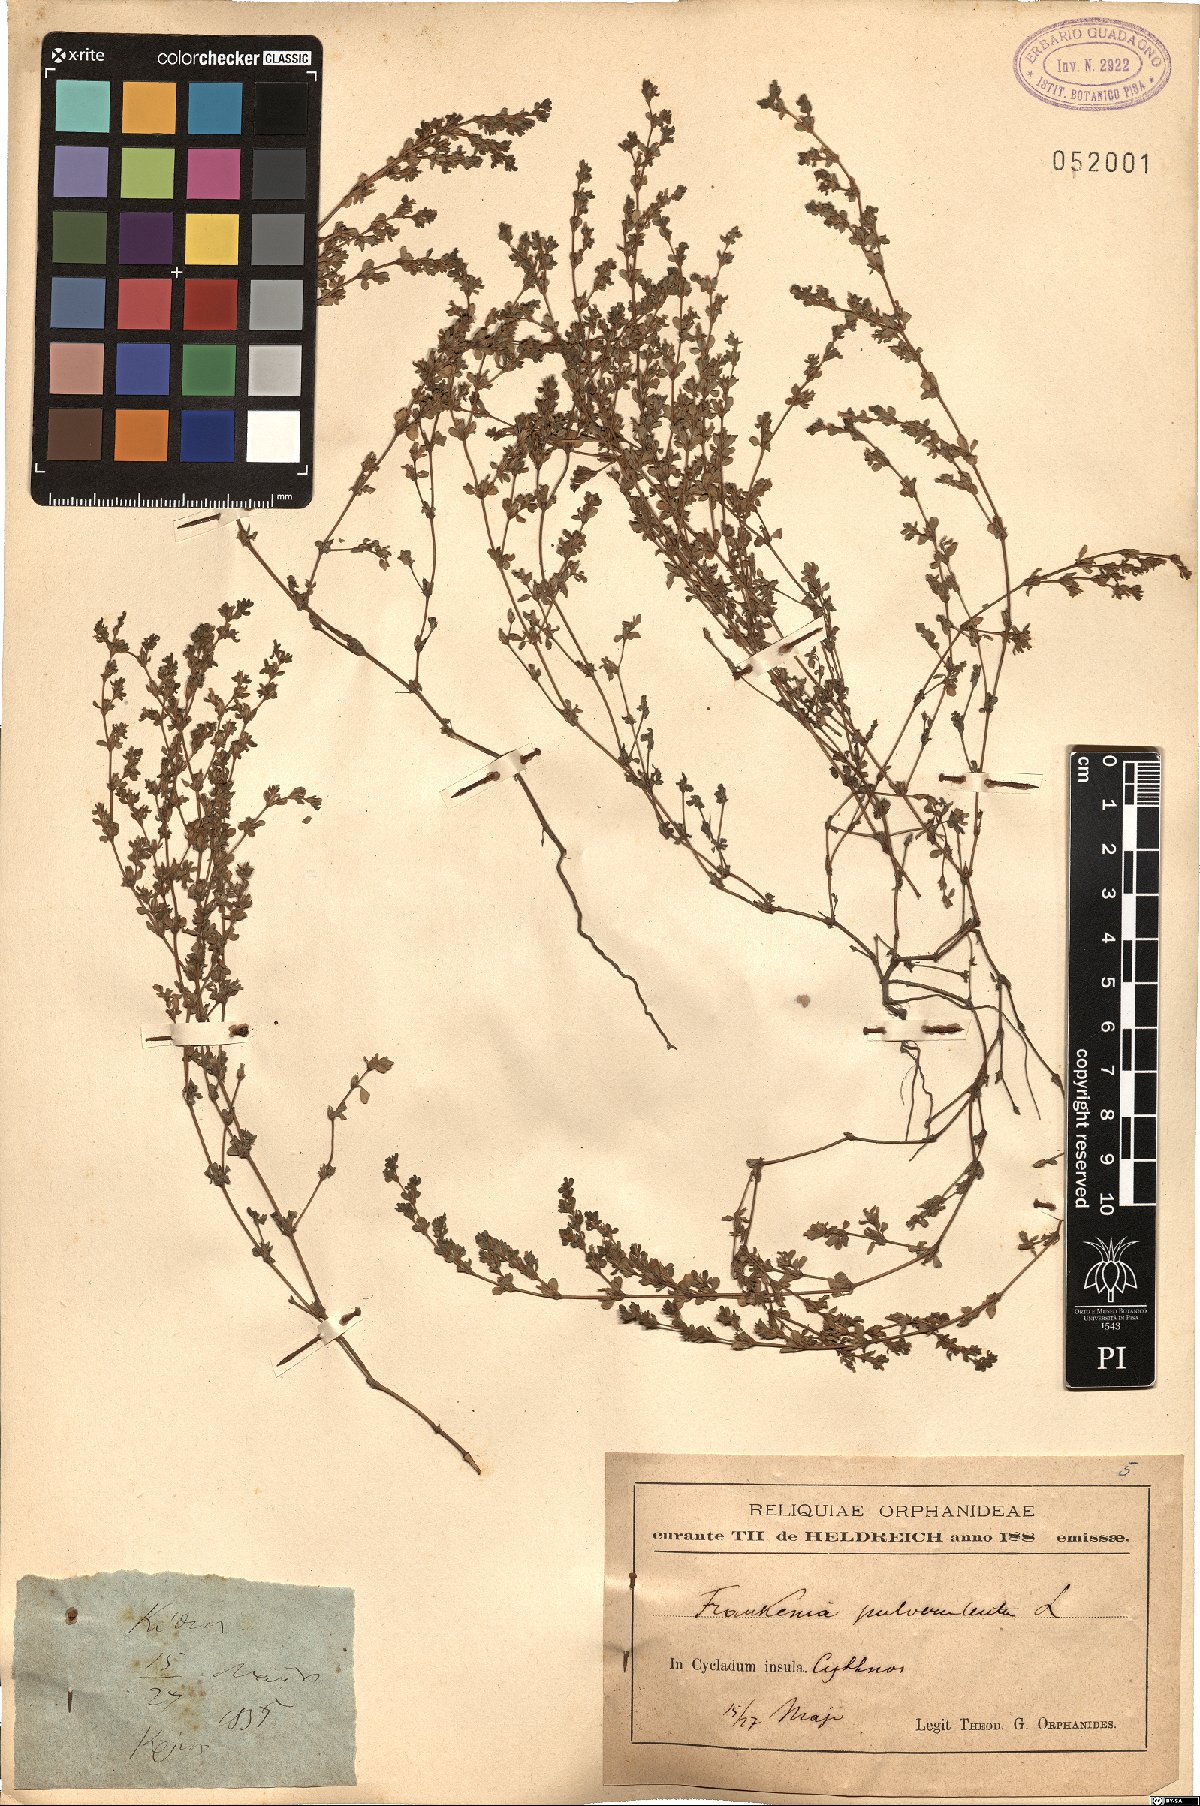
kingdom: Plantae
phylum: Tracheophyta
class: Magnoliopsida
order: Caryophyllales
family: Frankeniaceae
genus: Frankenia
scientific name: Frankenia pulverulenta
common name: European seaheath
